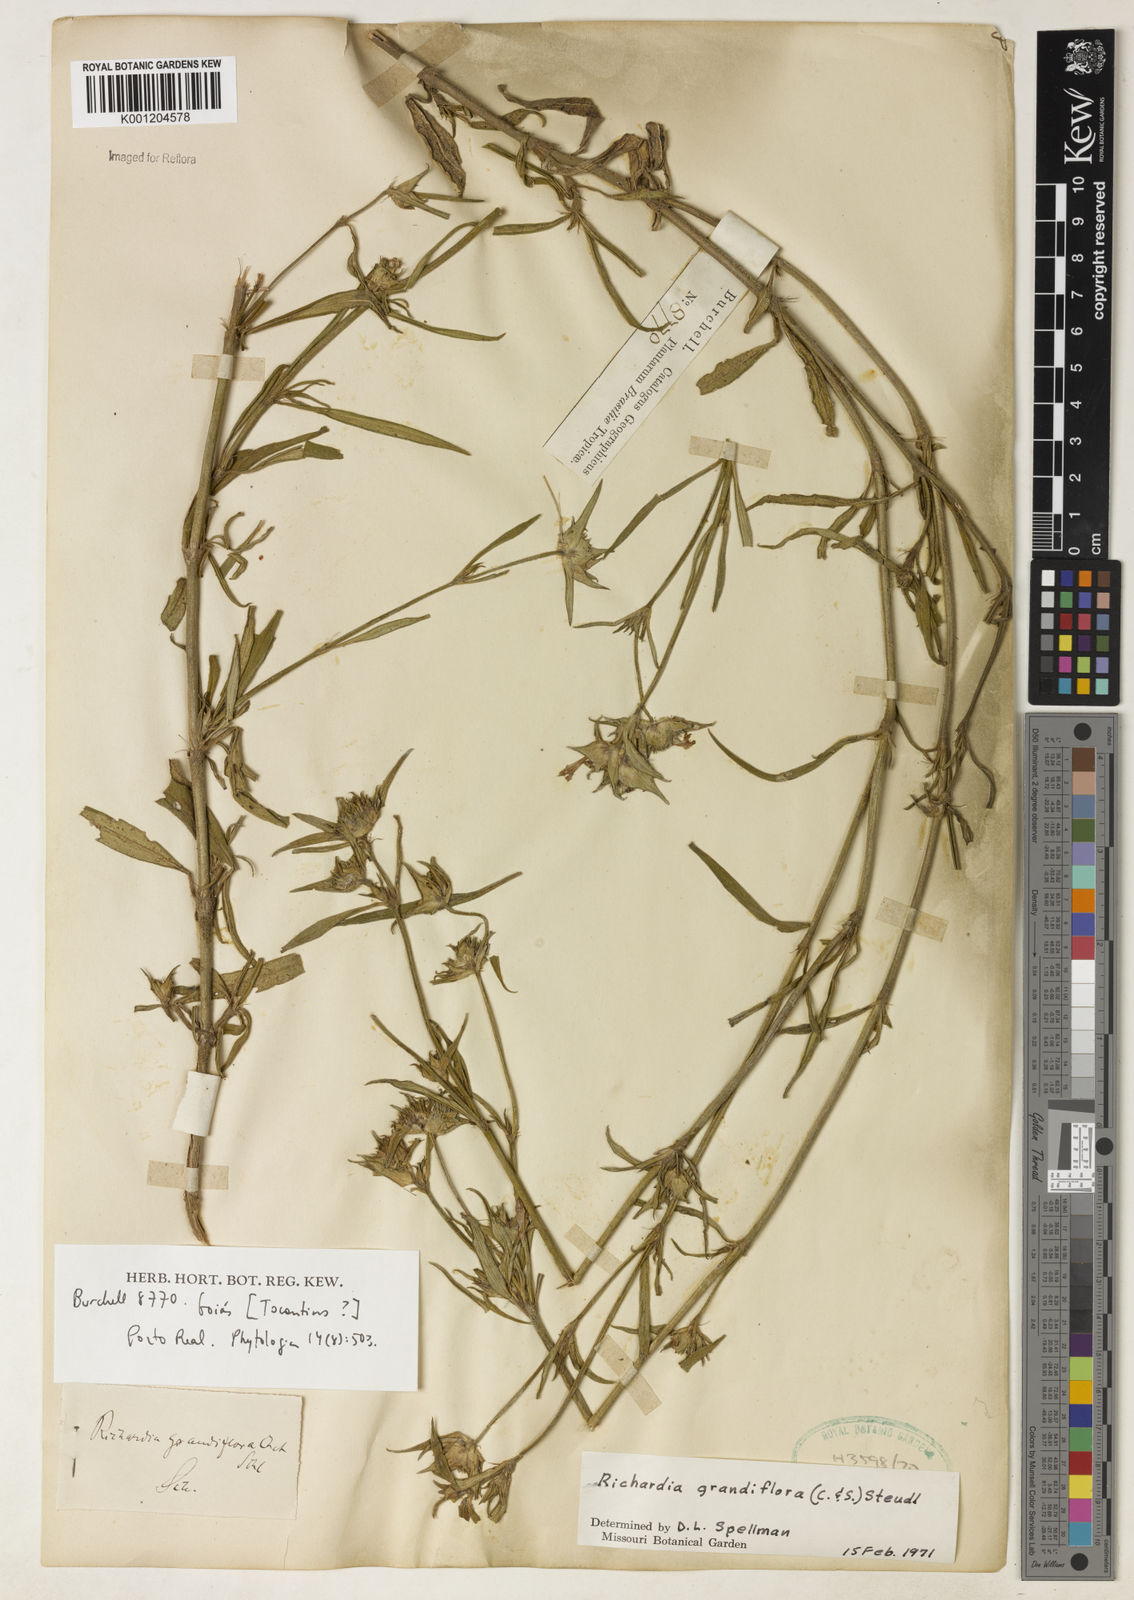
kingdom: Plantae
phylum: Tracheophyta
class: Magnoliopsida
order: Gentianales
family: Rubiaceae
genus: Richardia
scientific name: Richardia grandiflora
